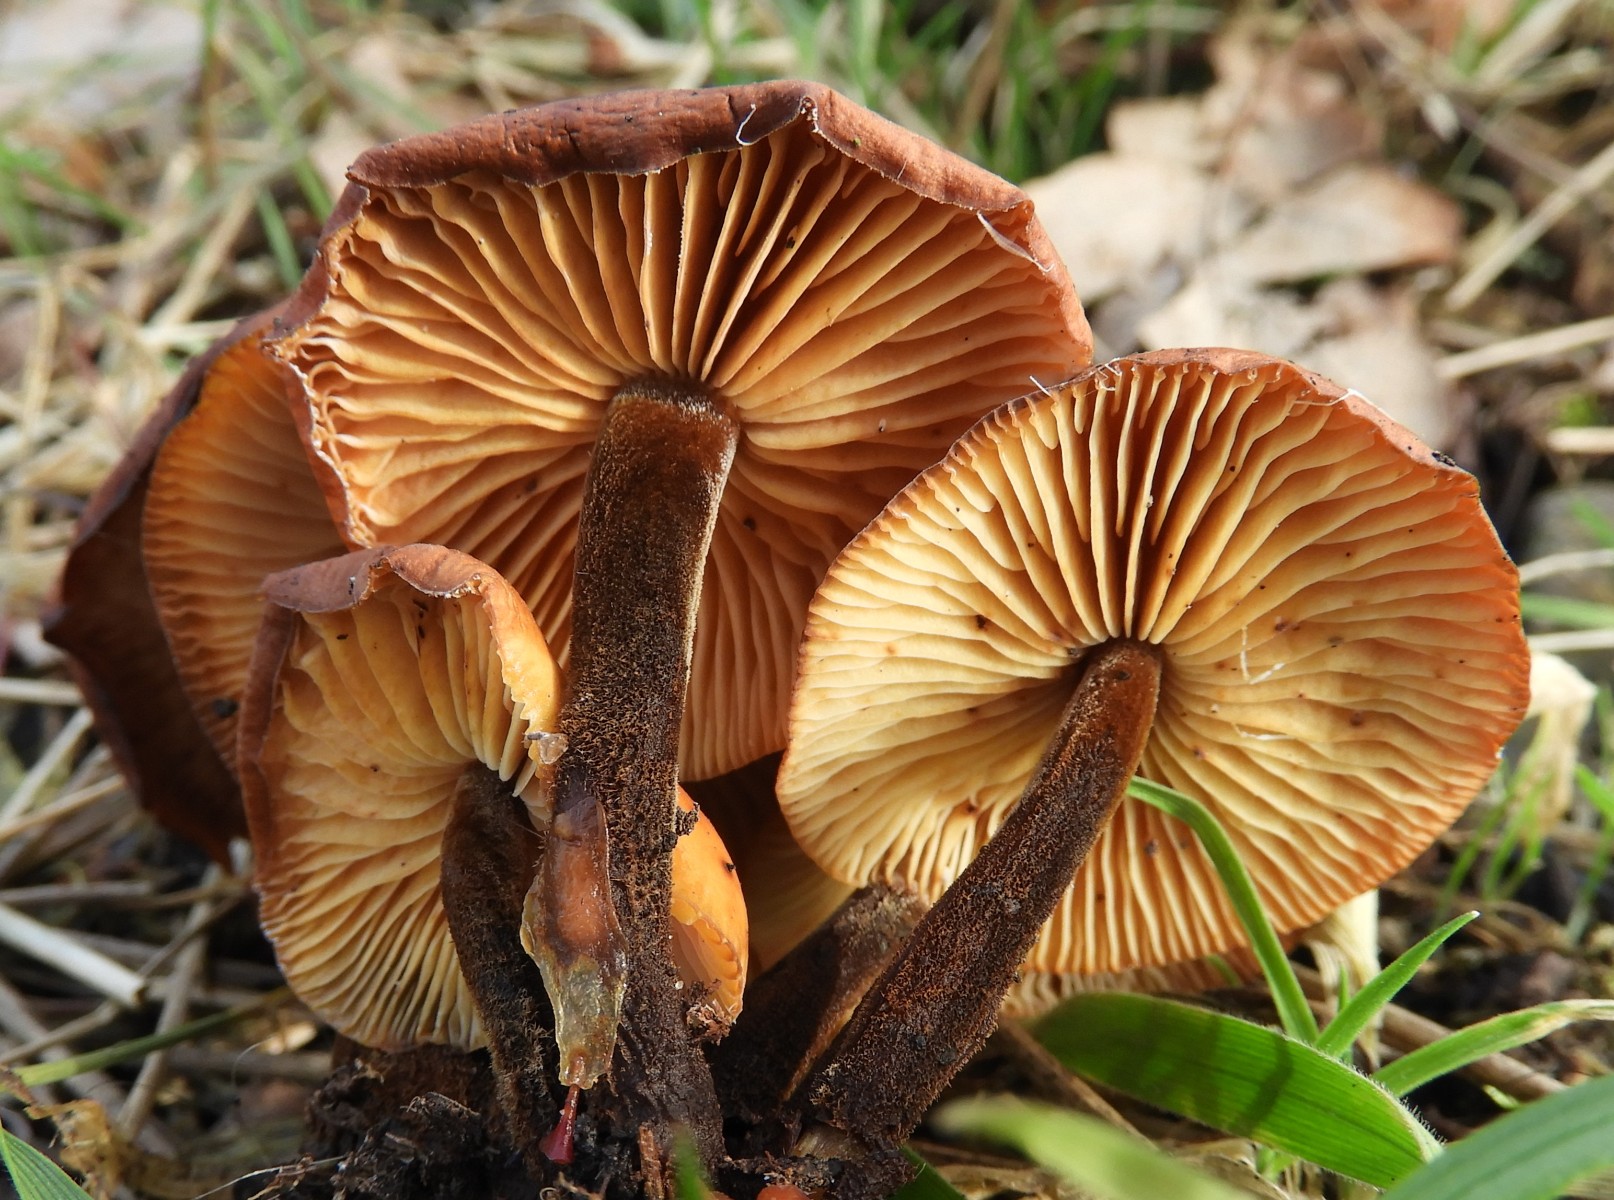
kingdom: Fungi
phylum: Basidiomycota
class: Agaricomycetes
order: Agaricales
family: Physalacriaceae
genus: Flammulina
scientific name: Flammulina velutipes
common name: gul fløjlsfod
